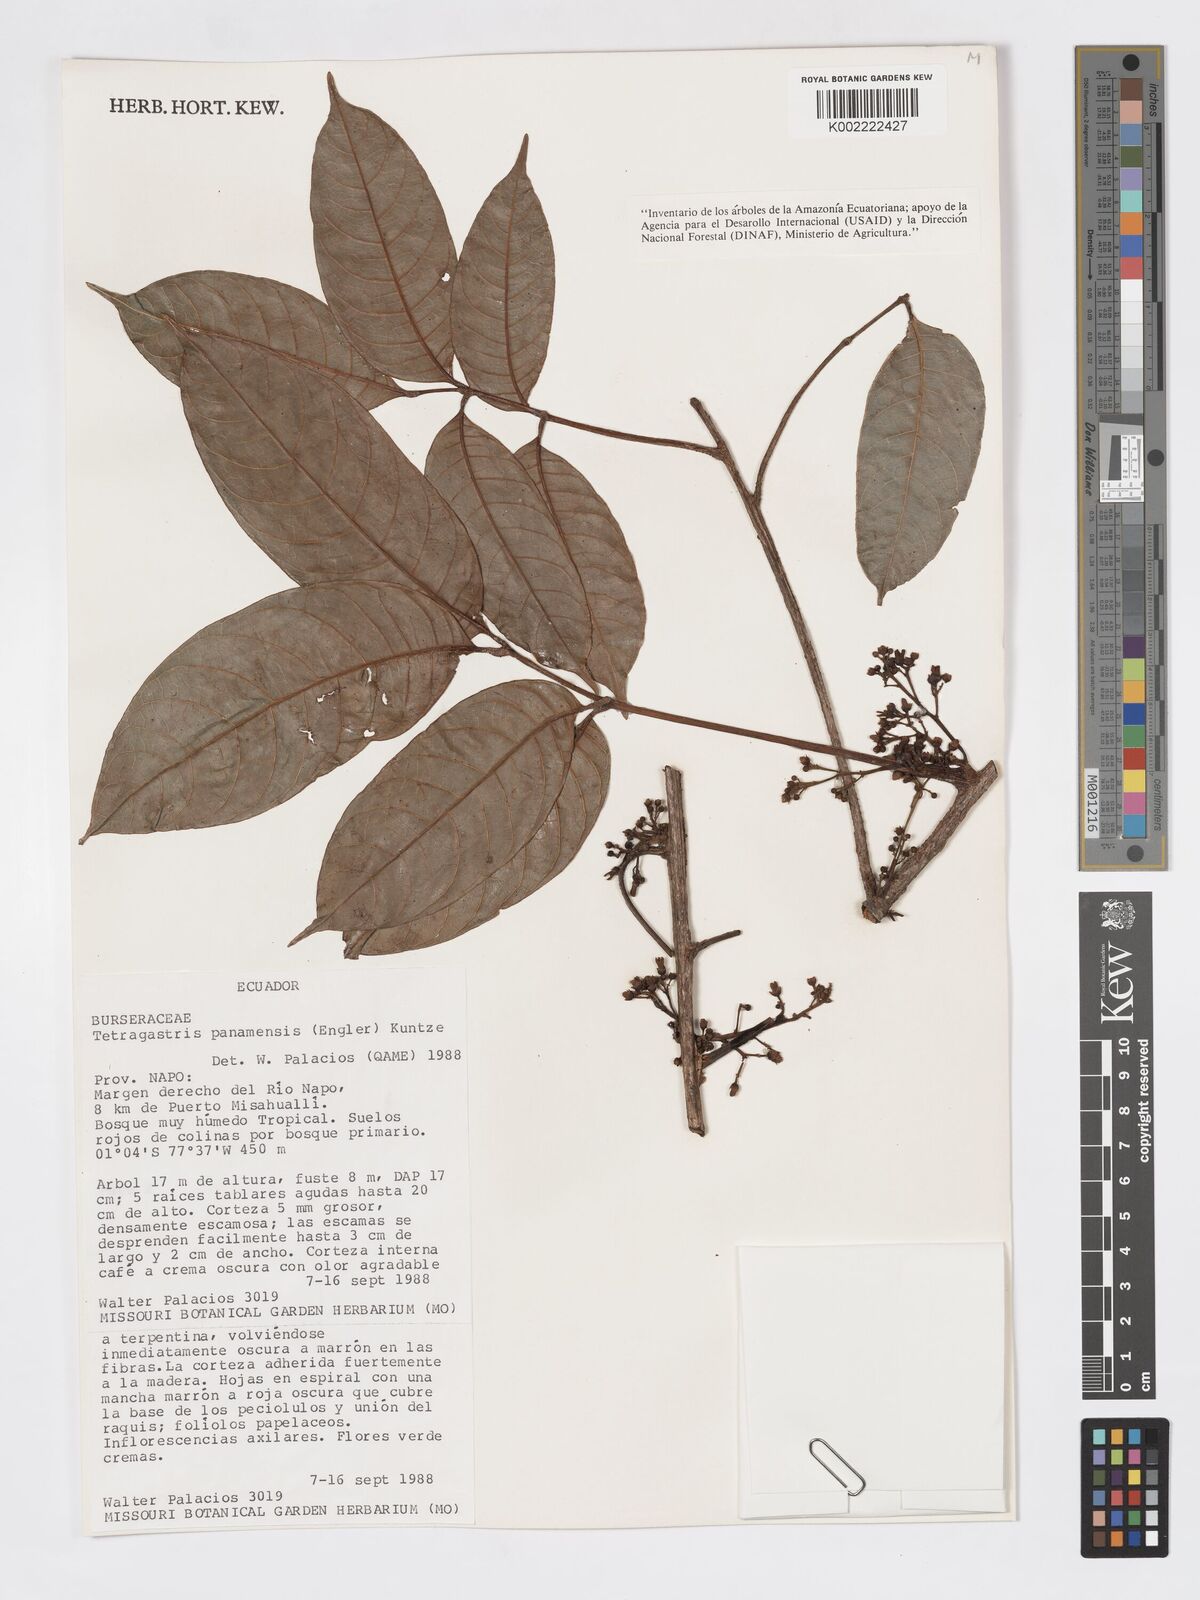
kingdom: Plantae
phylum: Tracheophyta
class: Magnoliopsida
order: Sapindales
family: Burseraceae
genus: Tetragastris
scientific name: Tetragastris panamensis
